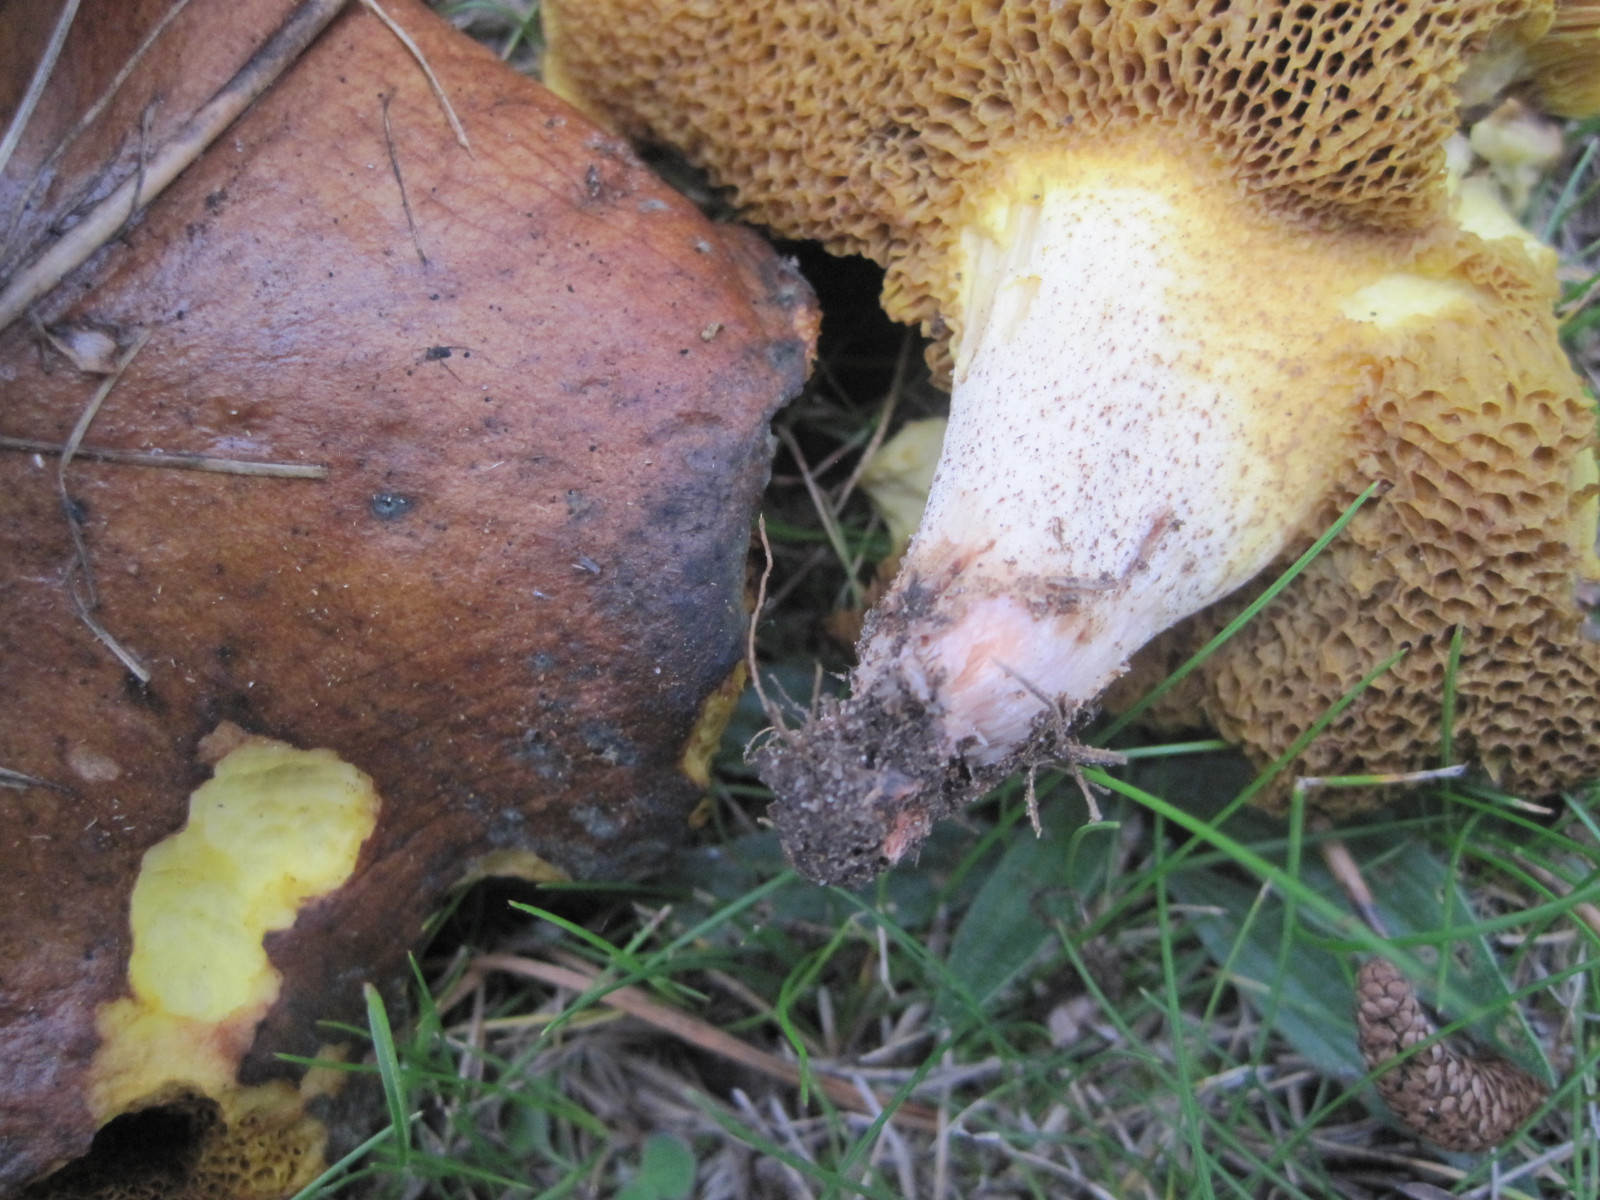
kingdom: Fungi
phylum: Basidiomycota
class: Agaricomycetes
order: Boletales
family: Suillaceae
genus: Suillus
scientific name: Suillus collinitus
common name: rosafodet slimrørhat
